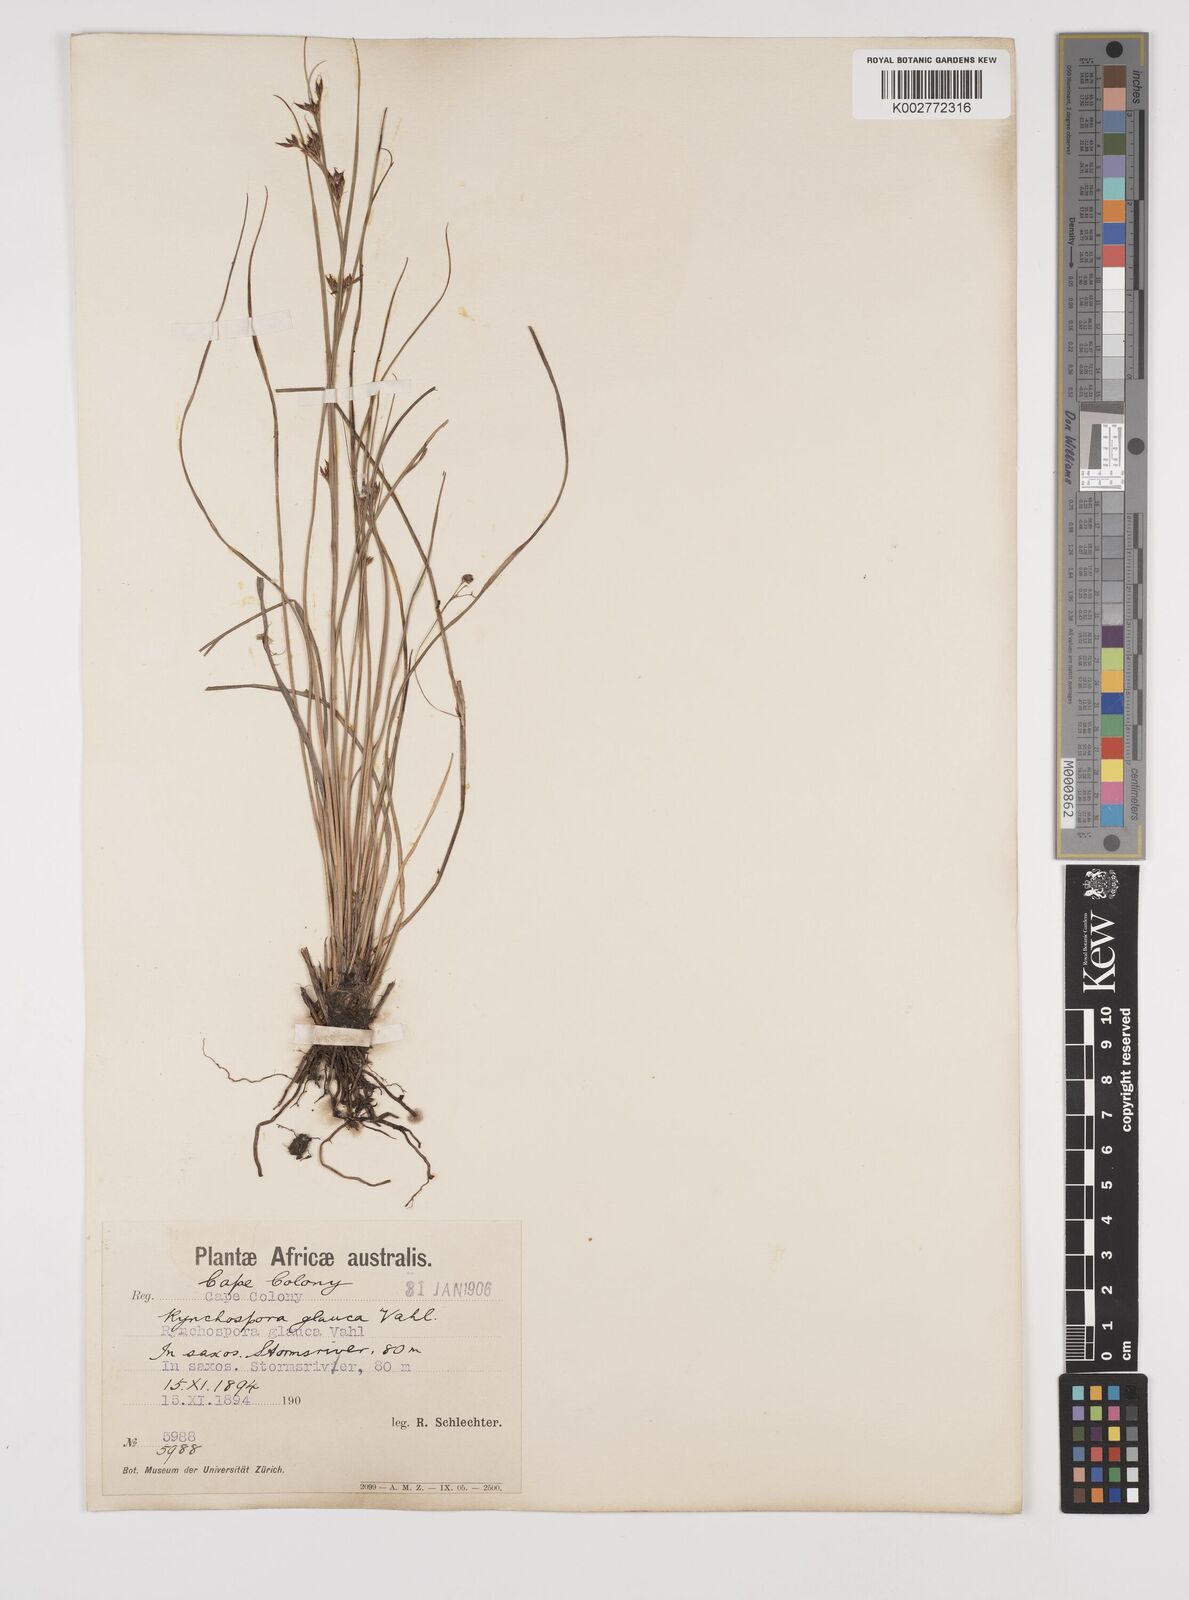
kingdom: Plantae
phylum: Tracheophyta
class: Liliopsida
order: Poales
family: Cyperaceae
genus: Rhynchospora
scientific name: Rhynchospora rugosa
